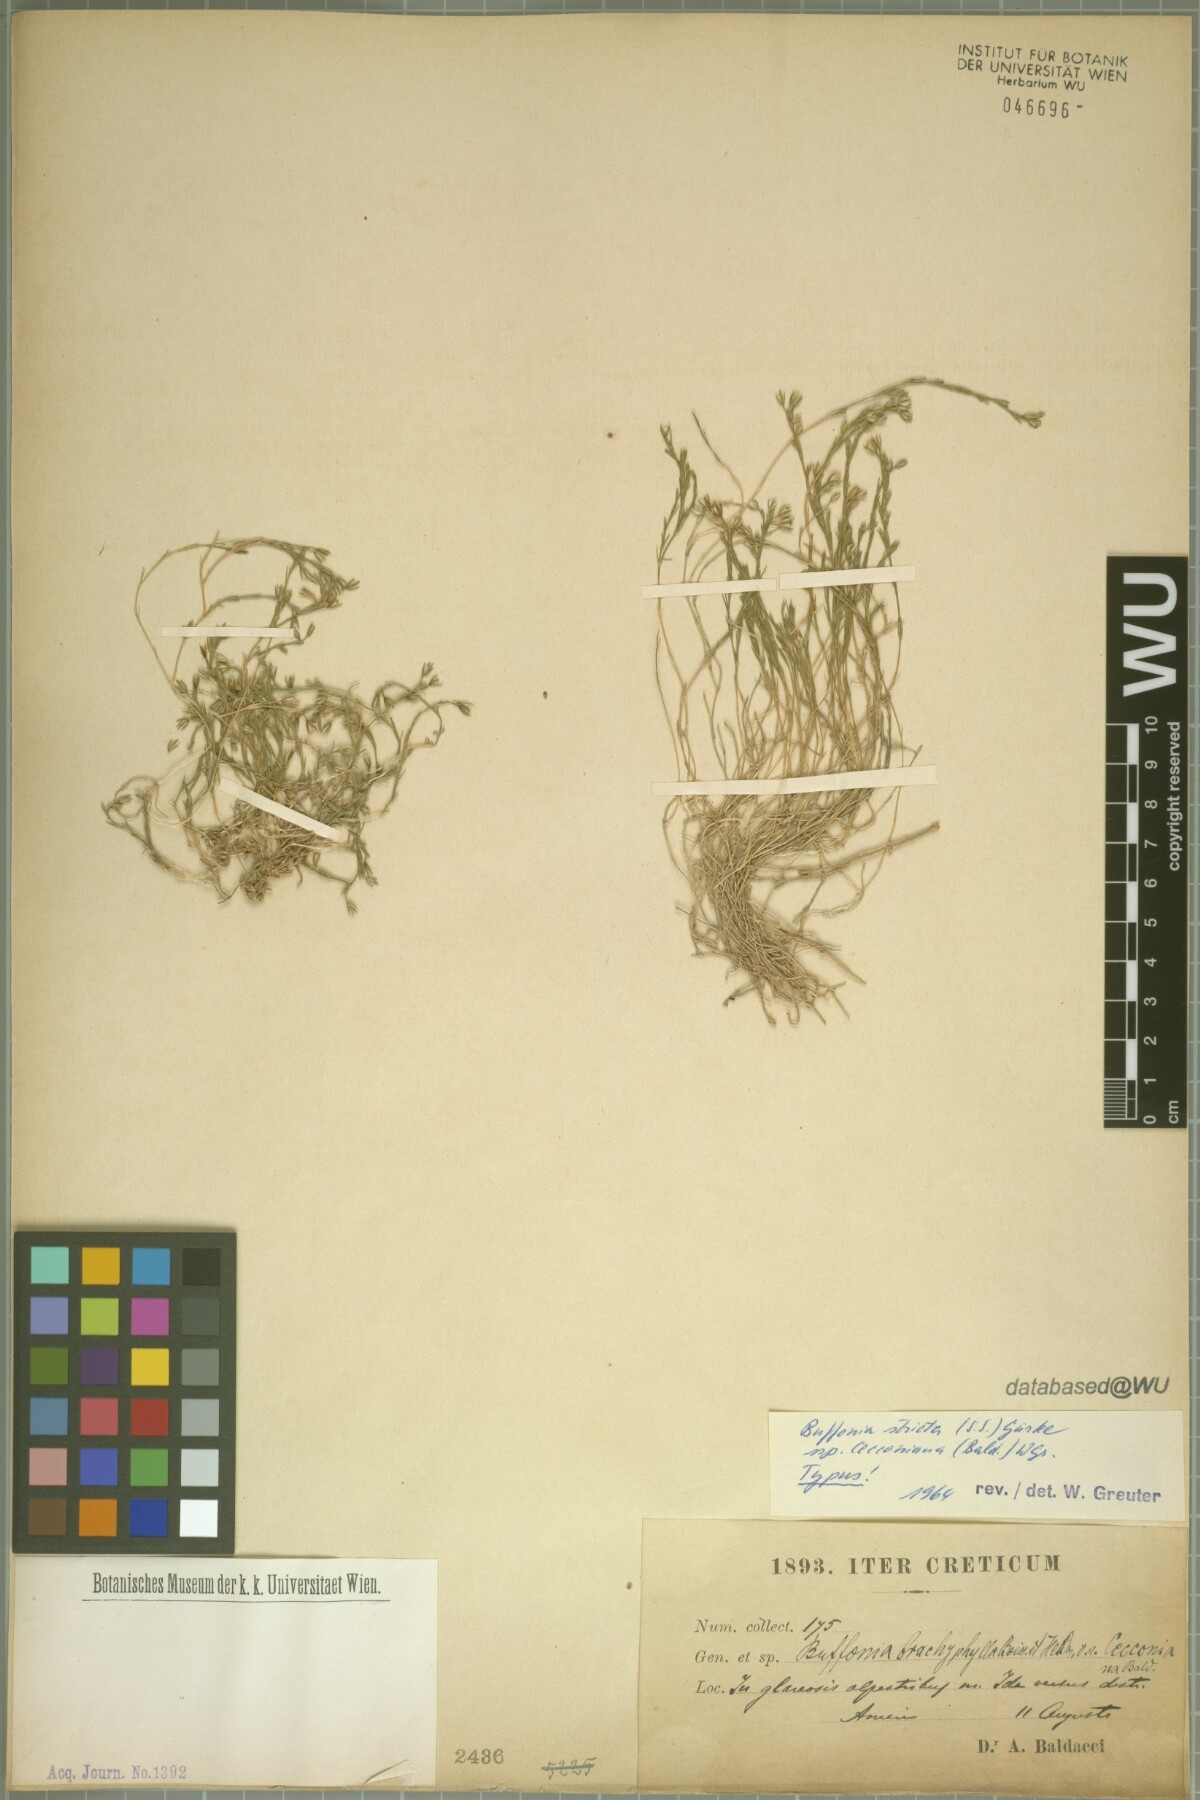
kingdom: Plantae
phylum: Tracheophyta
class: Magnoliopsida
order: Caryophyllales
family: Caryophyllaceae
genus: Bufonia
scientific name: Bufonia stricta
